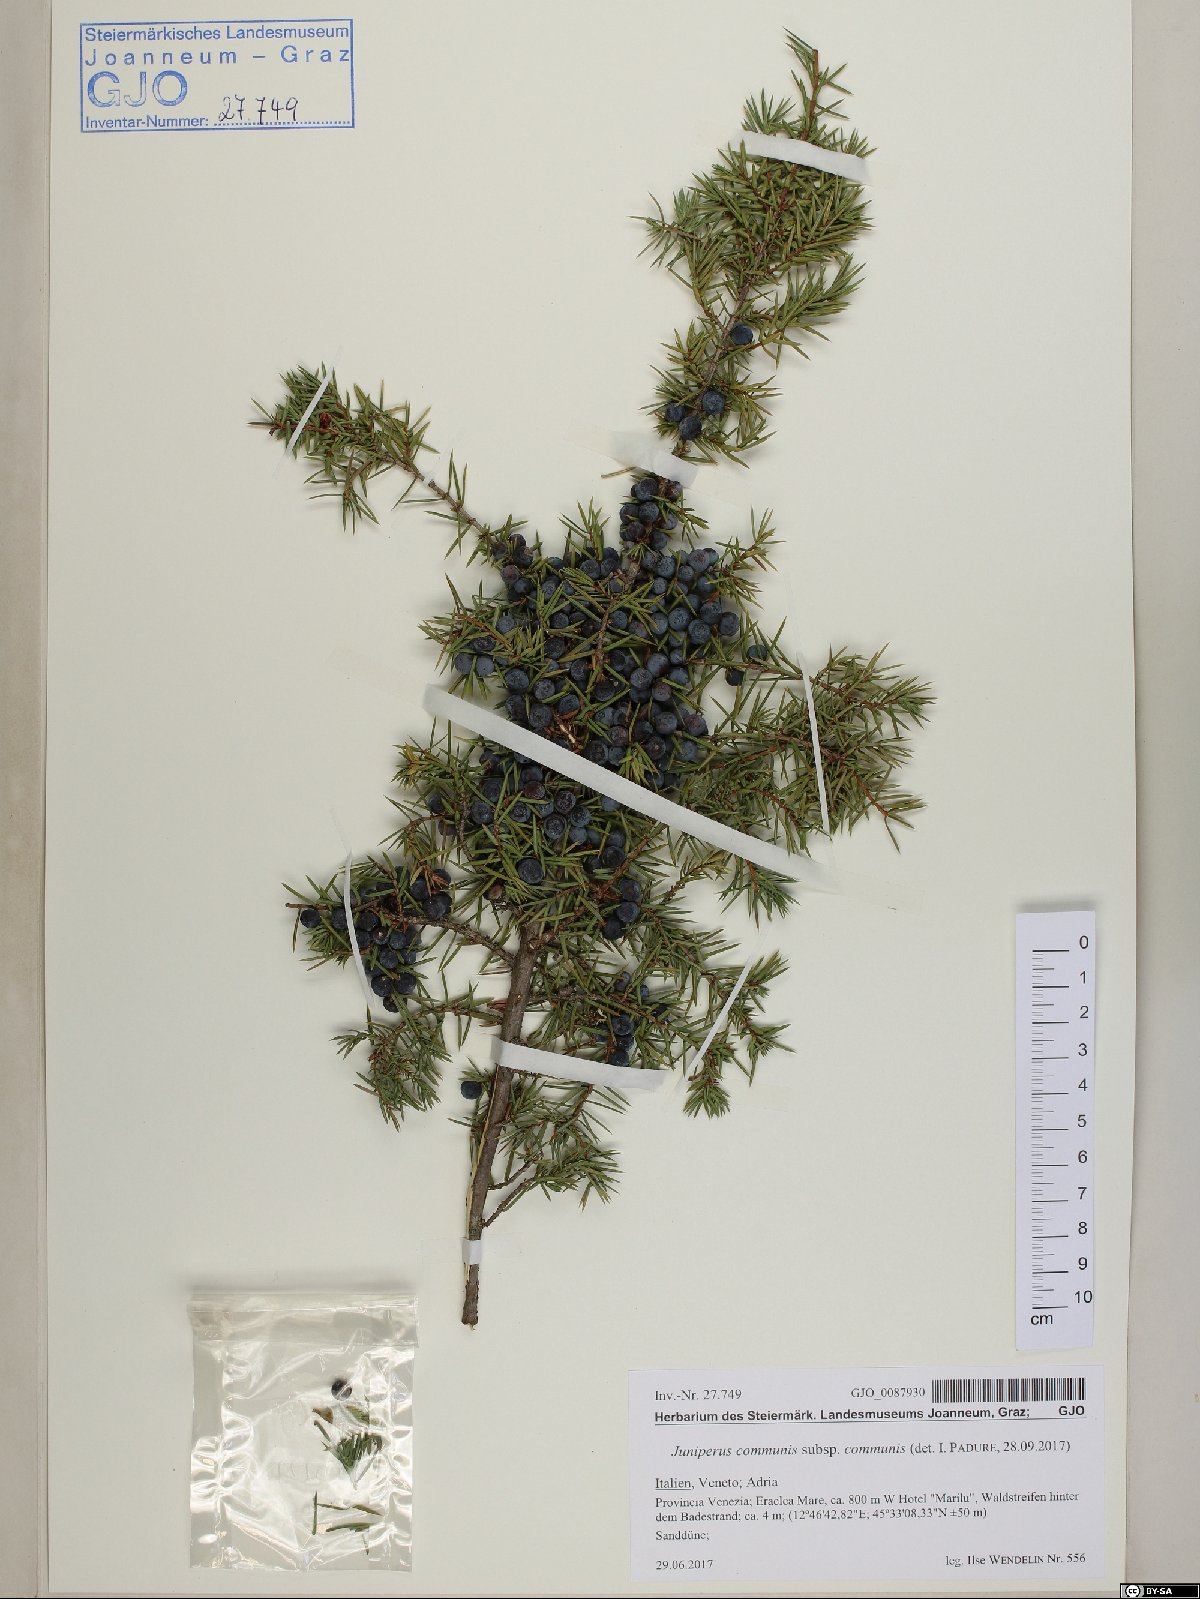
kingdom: Plantae
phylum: Tracheophyta
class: Pinopsida
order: Pinales
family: Cupressaceae
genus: Juniperus
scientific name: Juniperus communis
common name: Common juniper
